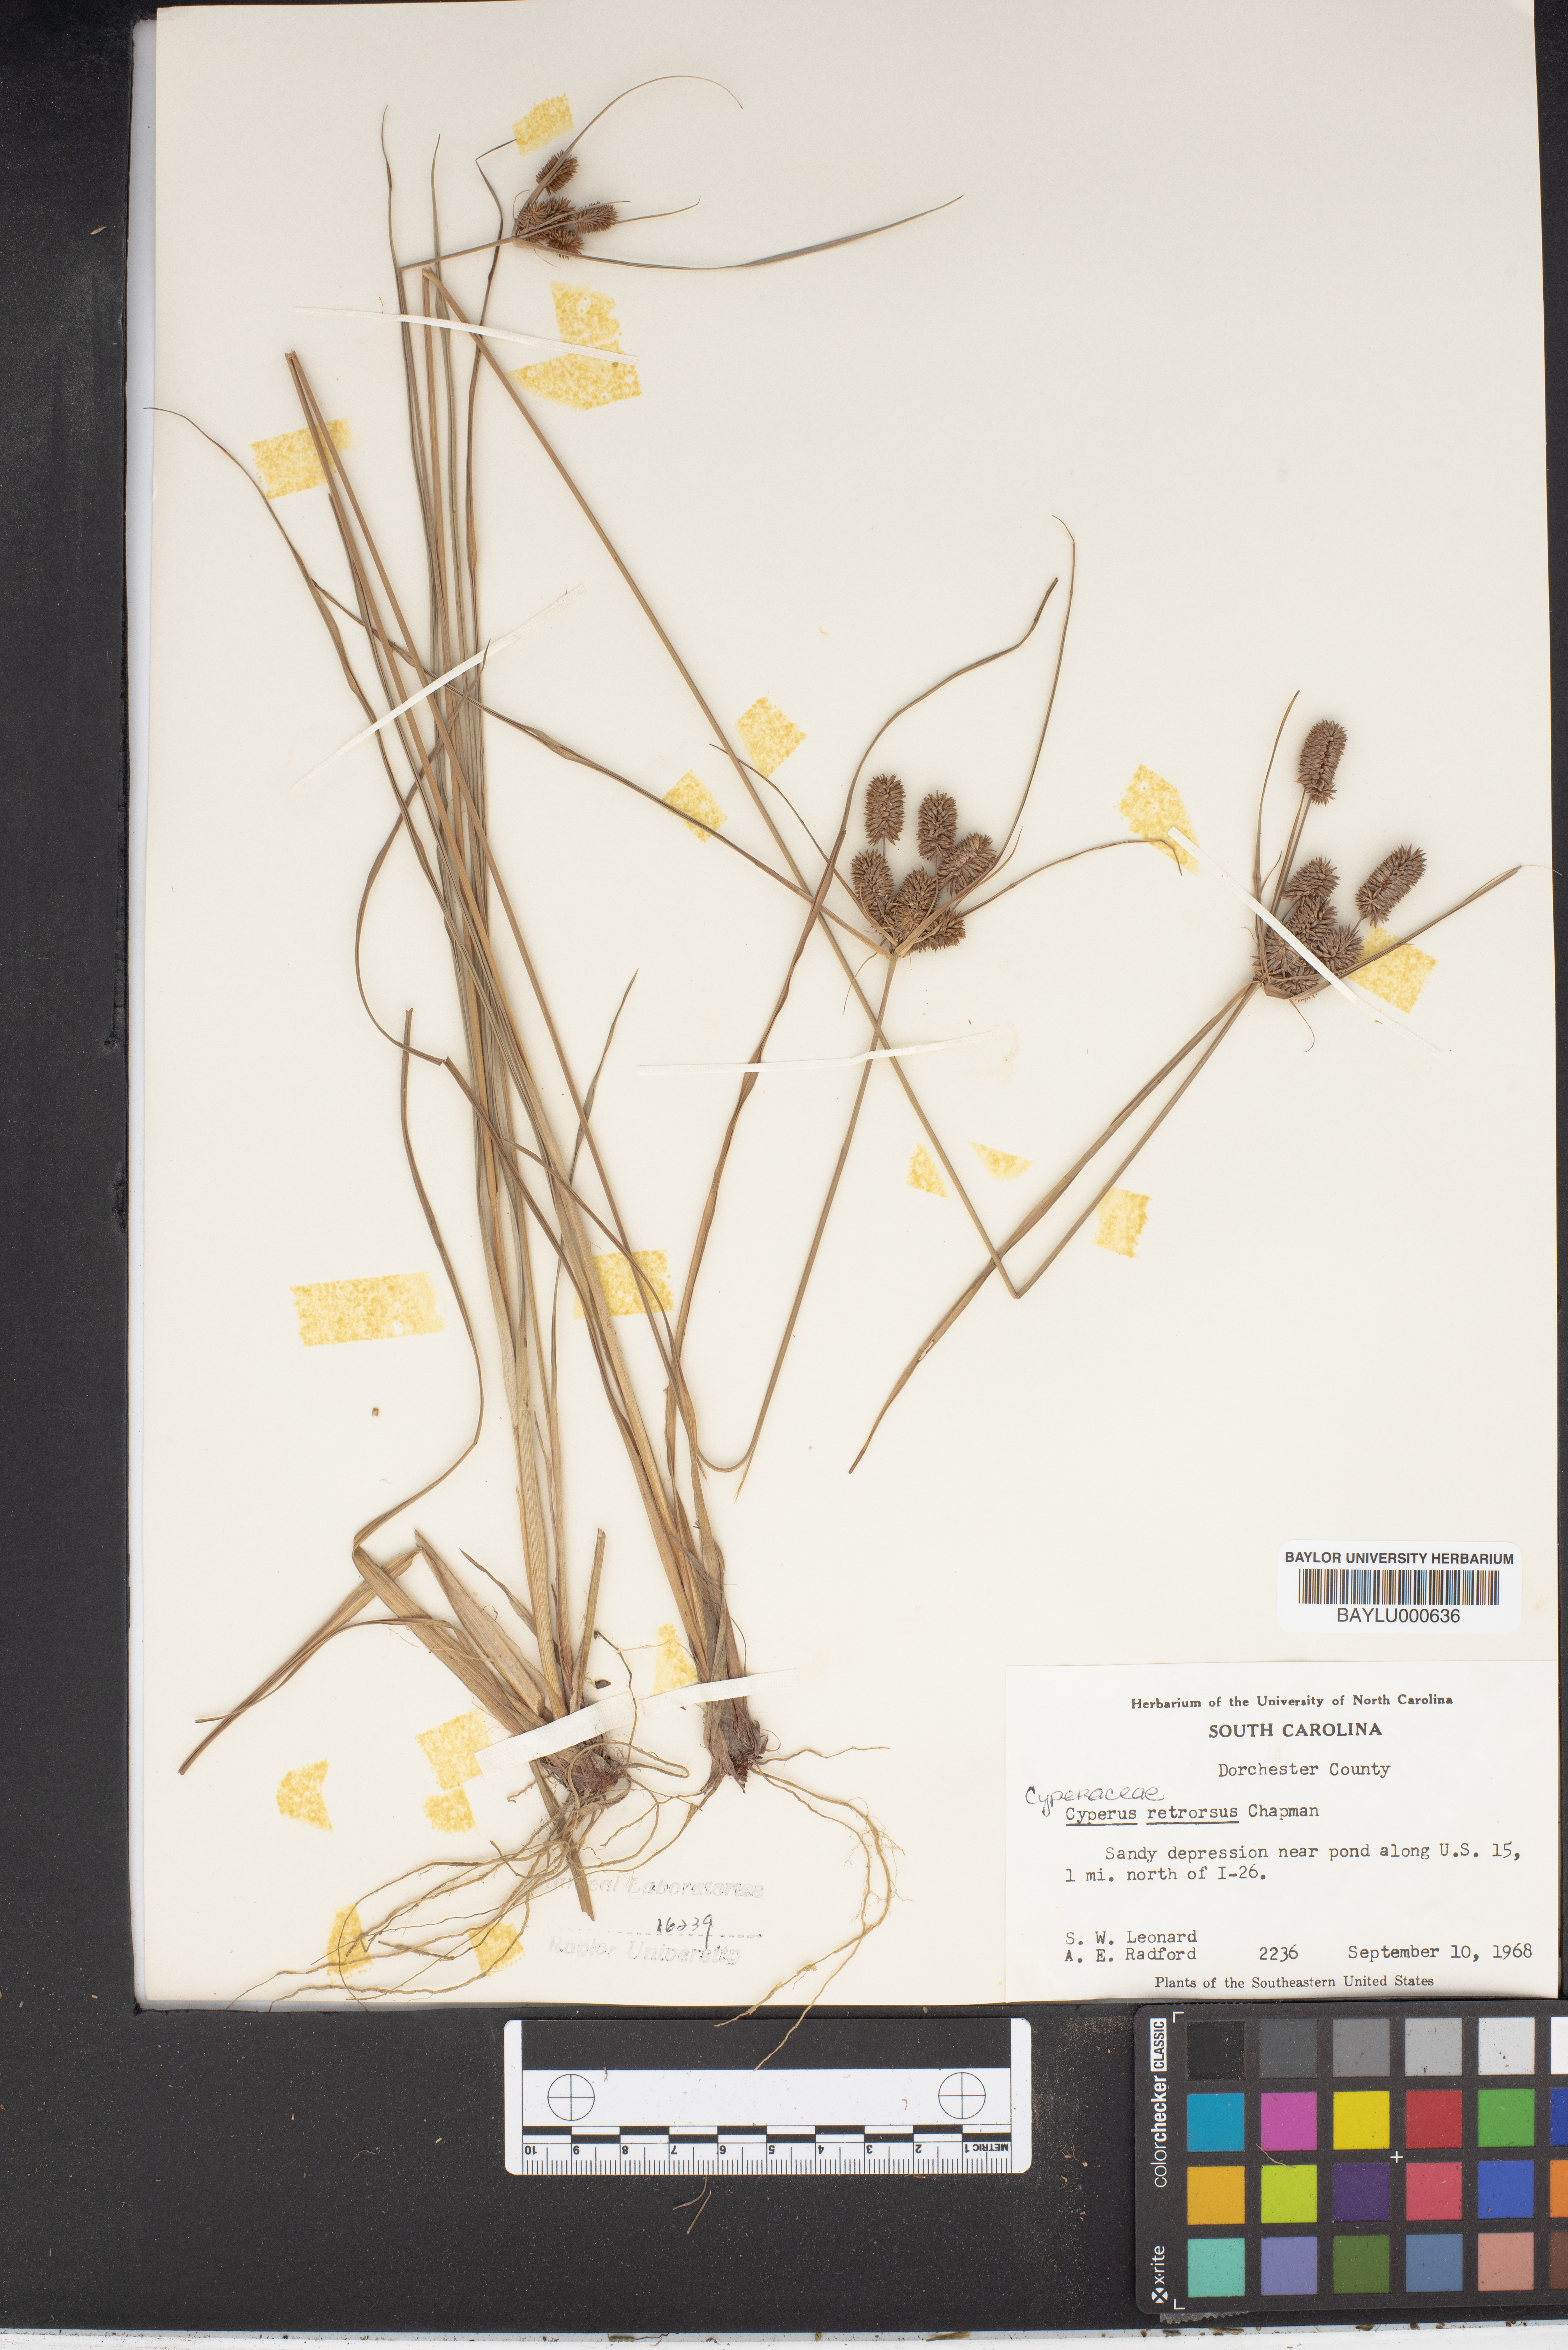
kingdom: Plantae
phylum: Tracheophyta
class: Liliopsida
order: Poales
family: Cyperaceae
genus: Cyperus
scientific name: Cyperus retrorsus
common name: Pinebarren flat sedge
